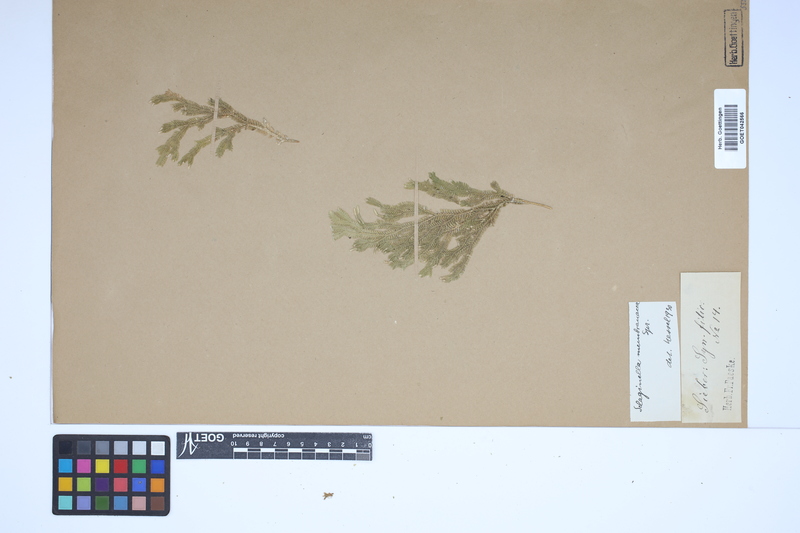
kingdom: Plantae
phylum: Tracheophyta
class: Lycopodiopsida
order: Selaginellales
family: Selaginellaceae
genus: Selaginella
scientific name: Selaginella fruticulosa
